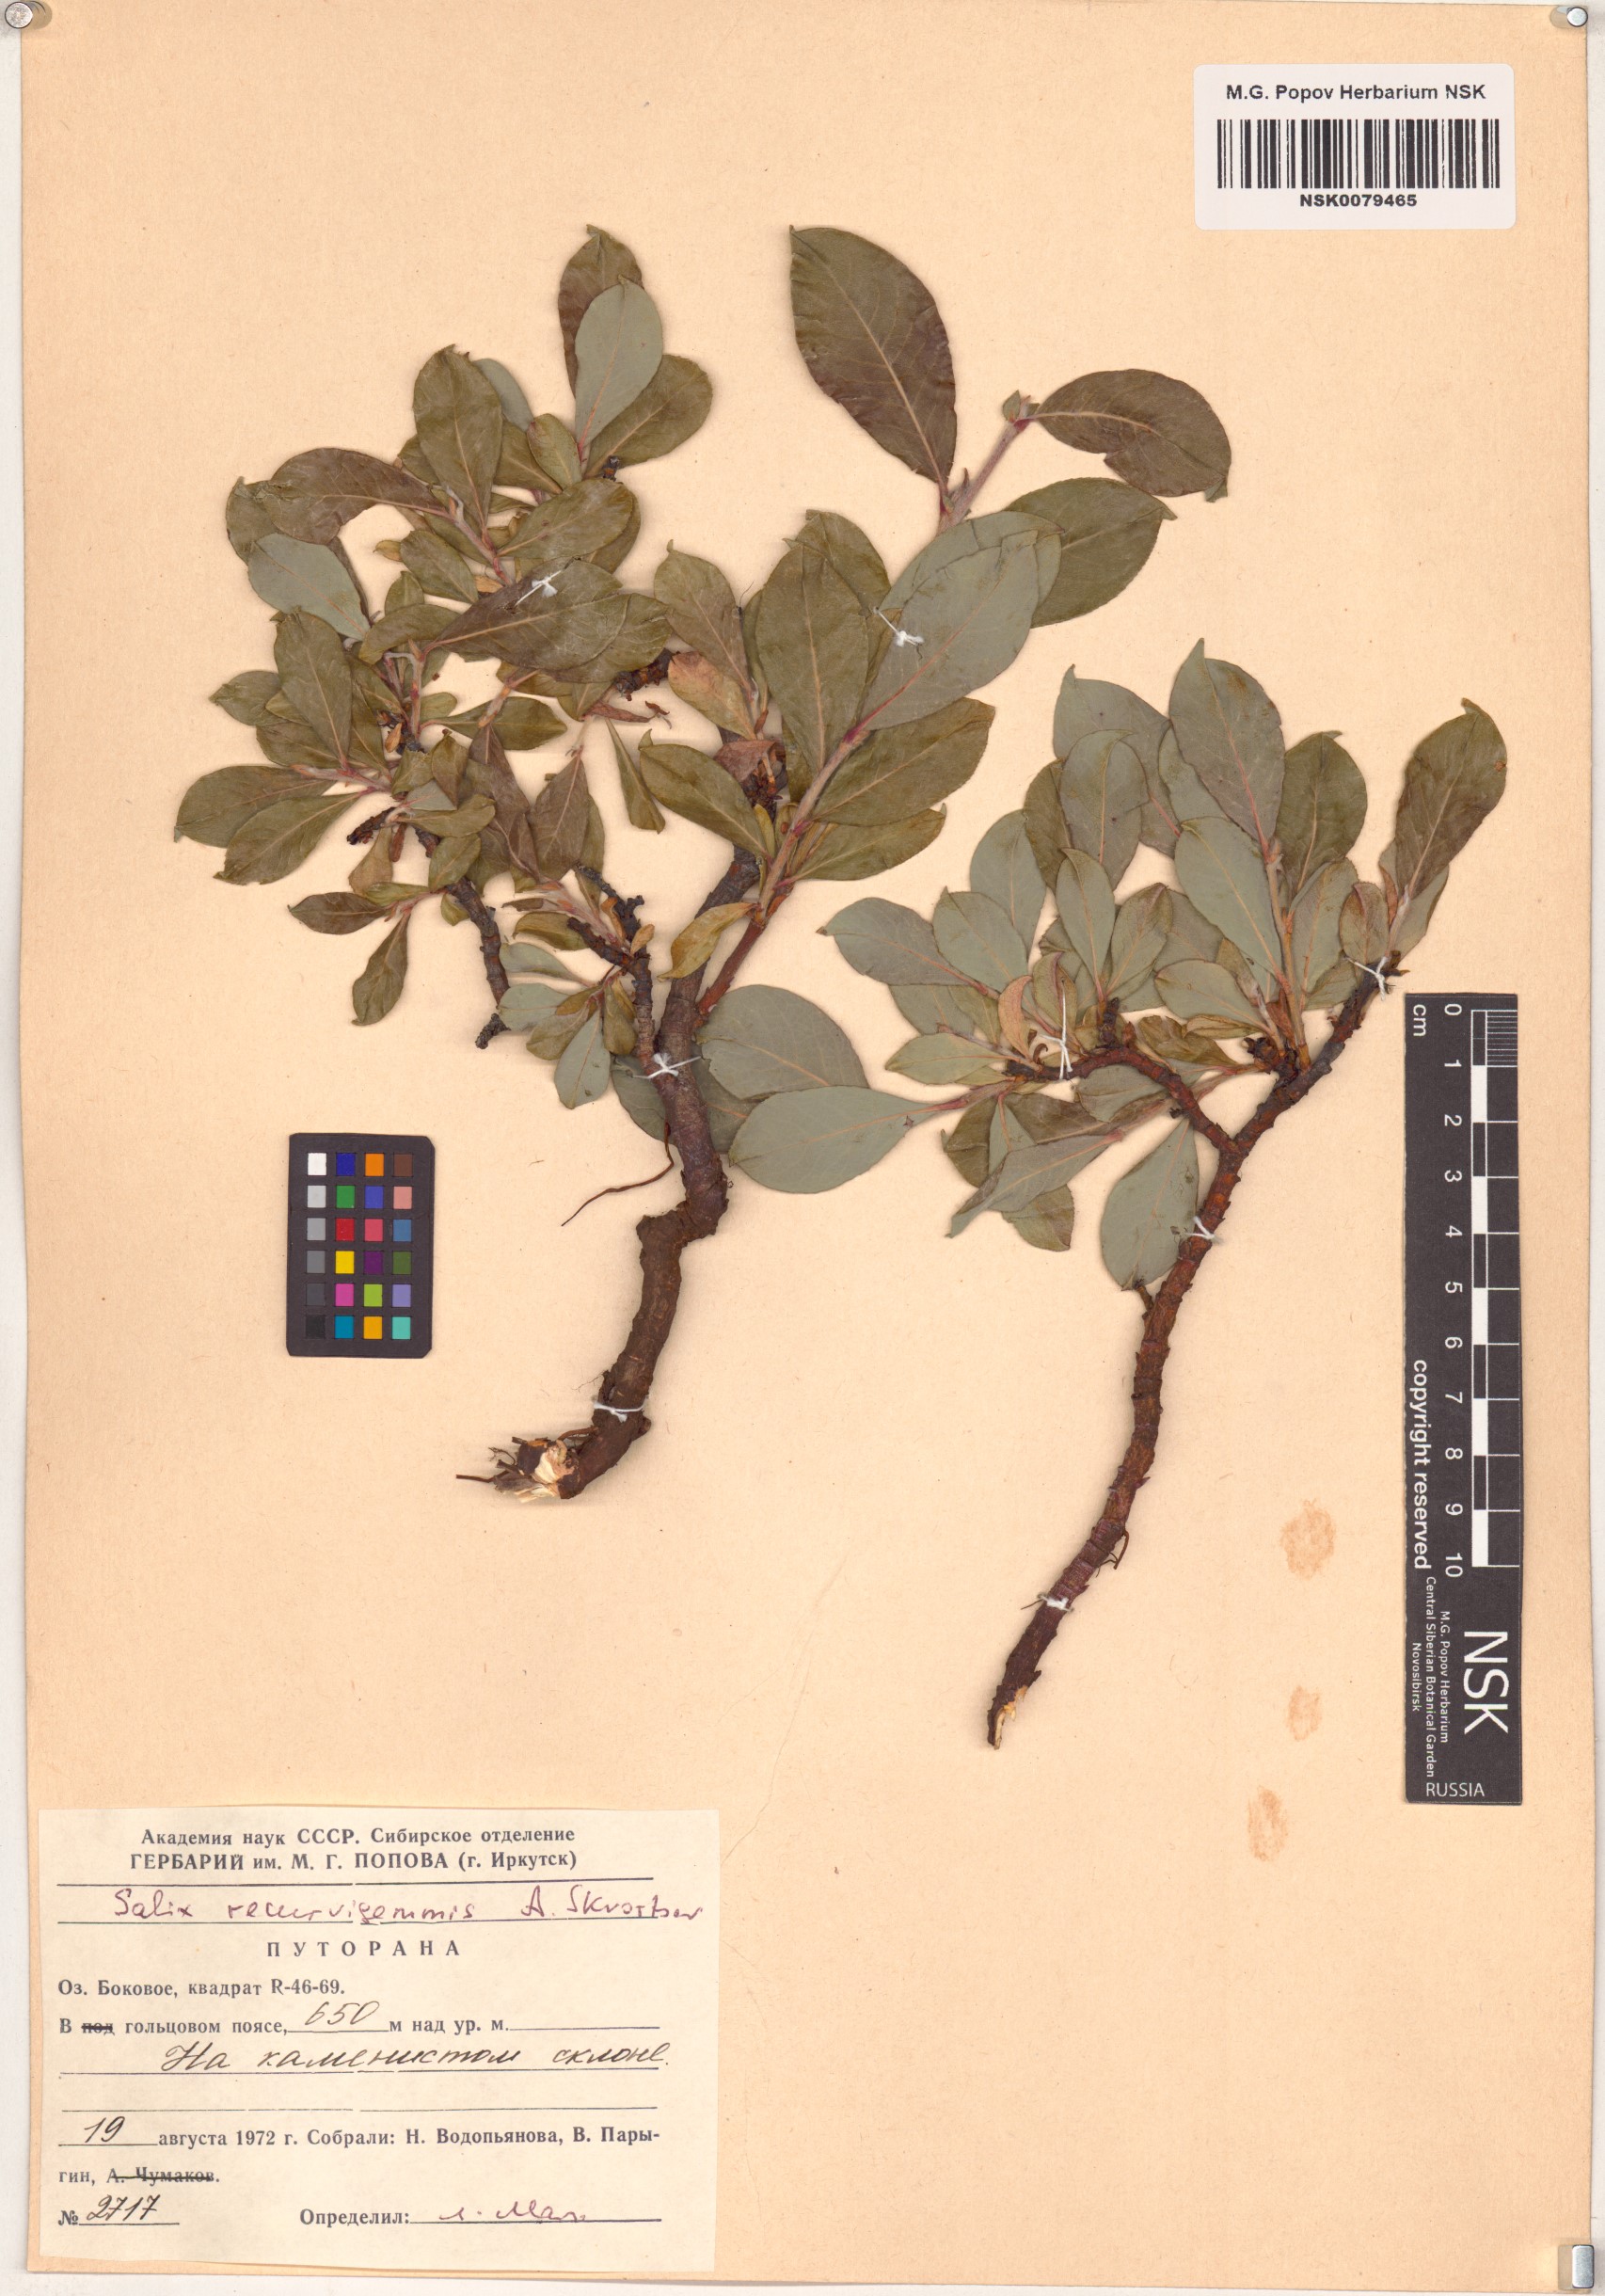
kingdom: Plantae
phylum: Tracheophyta
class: Magnoliopsida
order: Malpighiales
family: Salicaceae
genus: Salix
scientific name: Salix recurvigemmata
